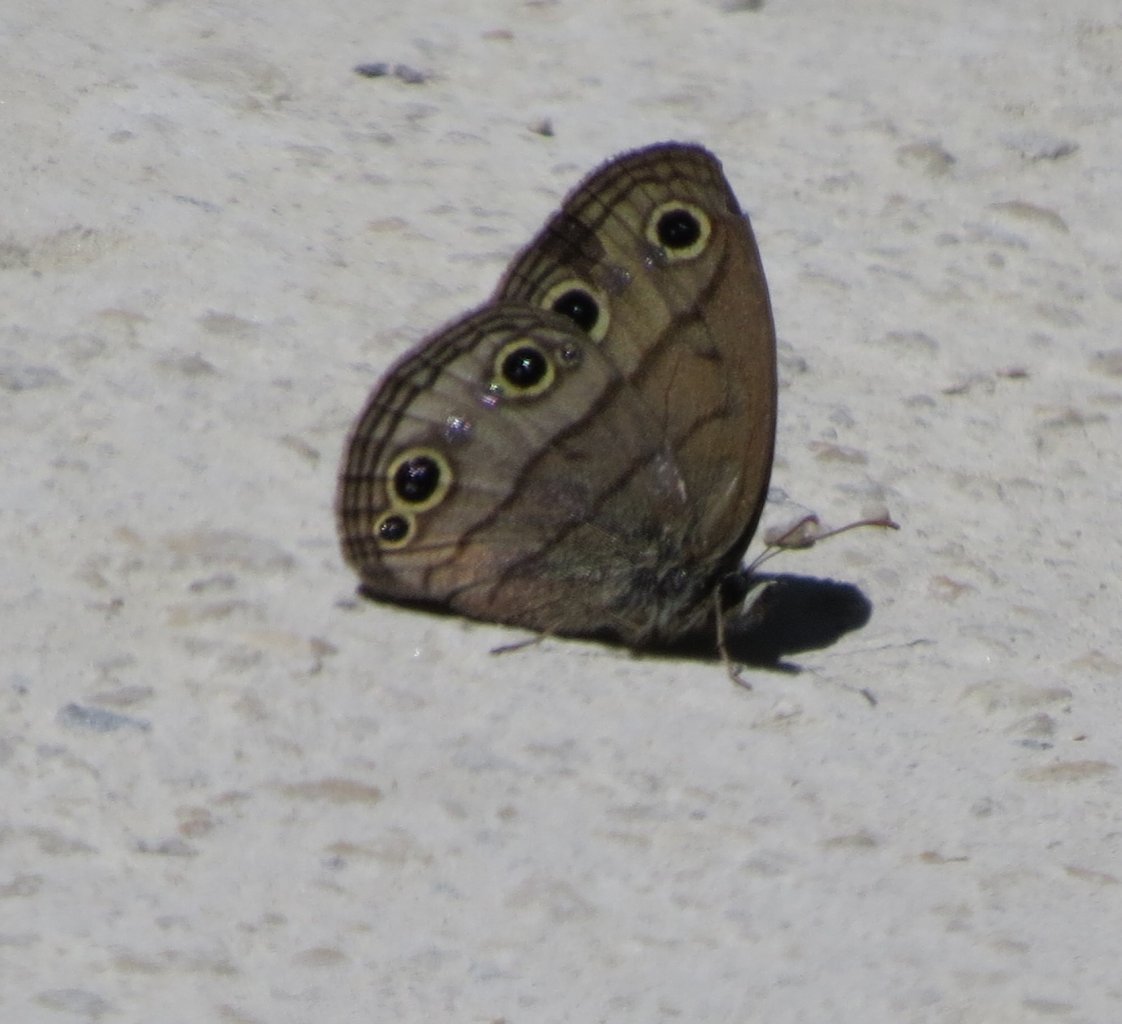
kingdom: Animalia
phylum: Arthropoda
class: Insecta
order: Lepidoptera
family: Nymphalidae
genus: Euptychia
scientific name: Euptychia cymela
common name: Little Wood Satyr
